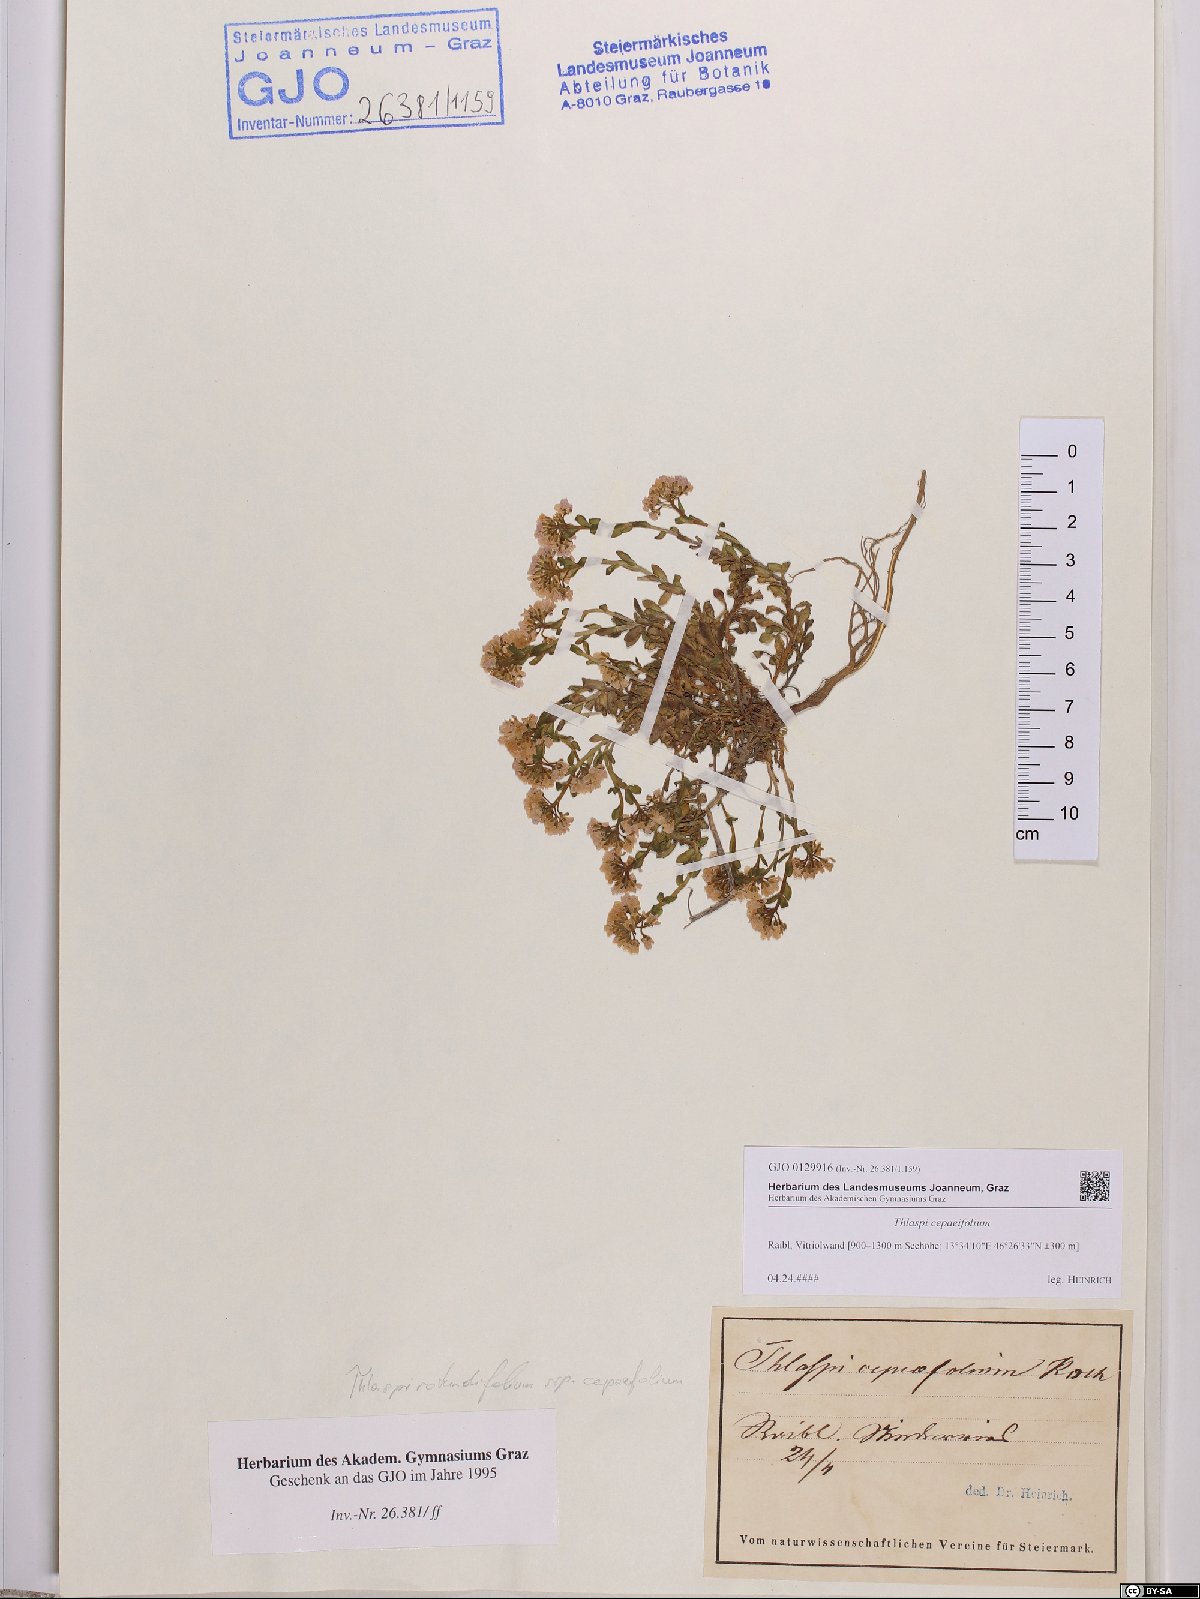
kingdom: Plantae
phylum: Tracheophyta
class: Magnoliopsida
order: Brassicales
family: Brassicaceae
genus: Noccaea
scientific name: Noccaea cepaeifolia
